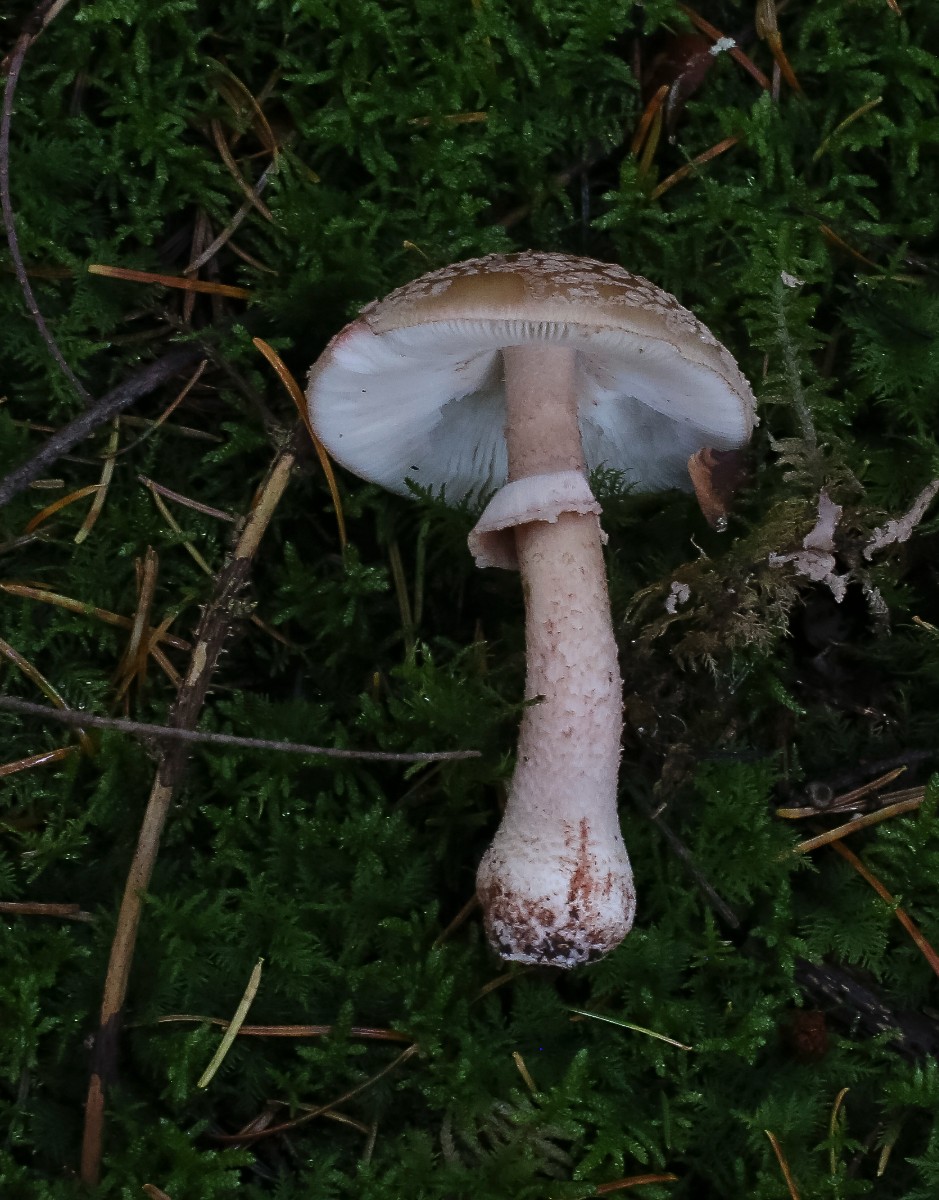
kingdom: Fungi
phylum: Basidiomycota
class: Agaricomycetes
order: Agaricales
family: Amanitaceae
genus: Amanita
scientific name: Amanita rubescens
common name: rødmende fluesvamp
